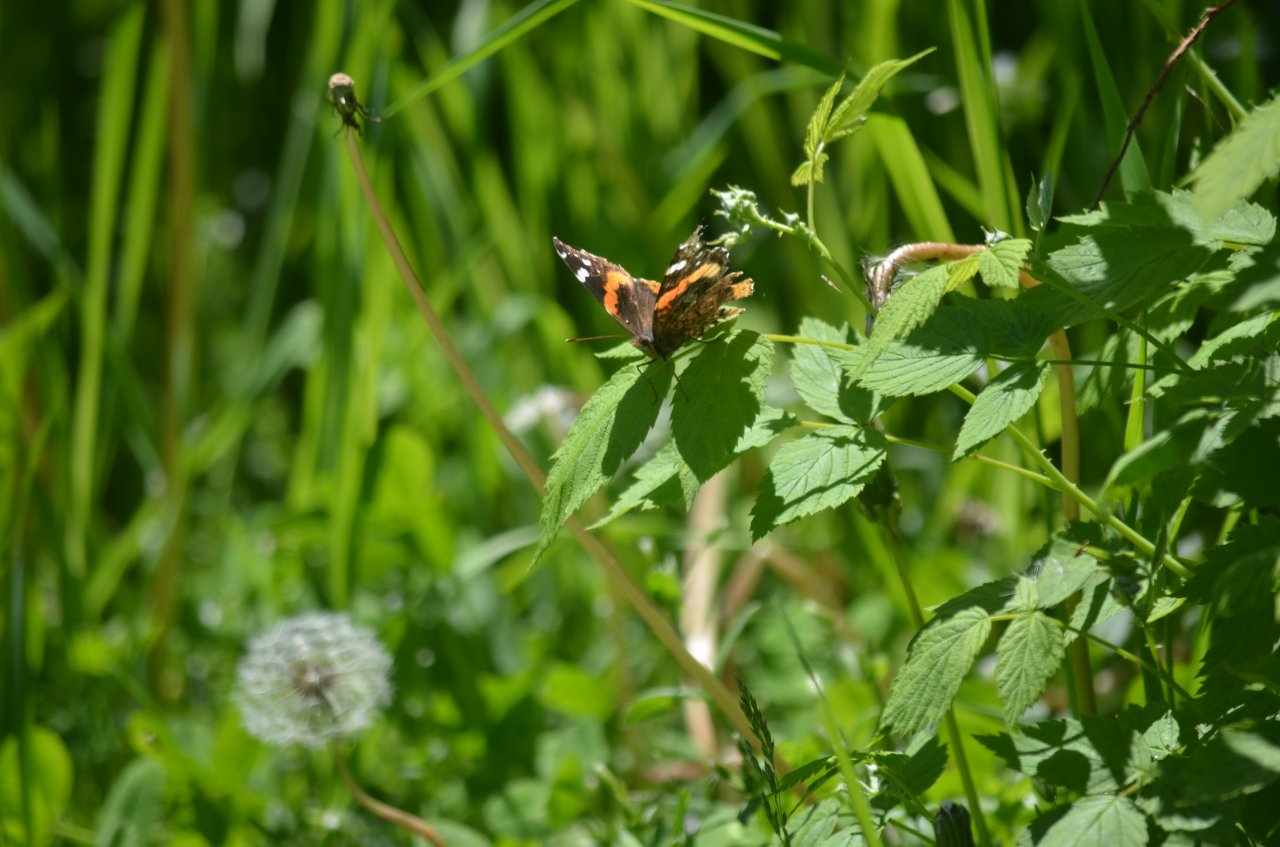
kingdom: Animalia
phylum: Arthropoda
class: Insecta
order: Lepidoptera
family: Nymphalidae
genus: Vanessa
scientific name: Vanessa atalanta
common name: Red Admiral
